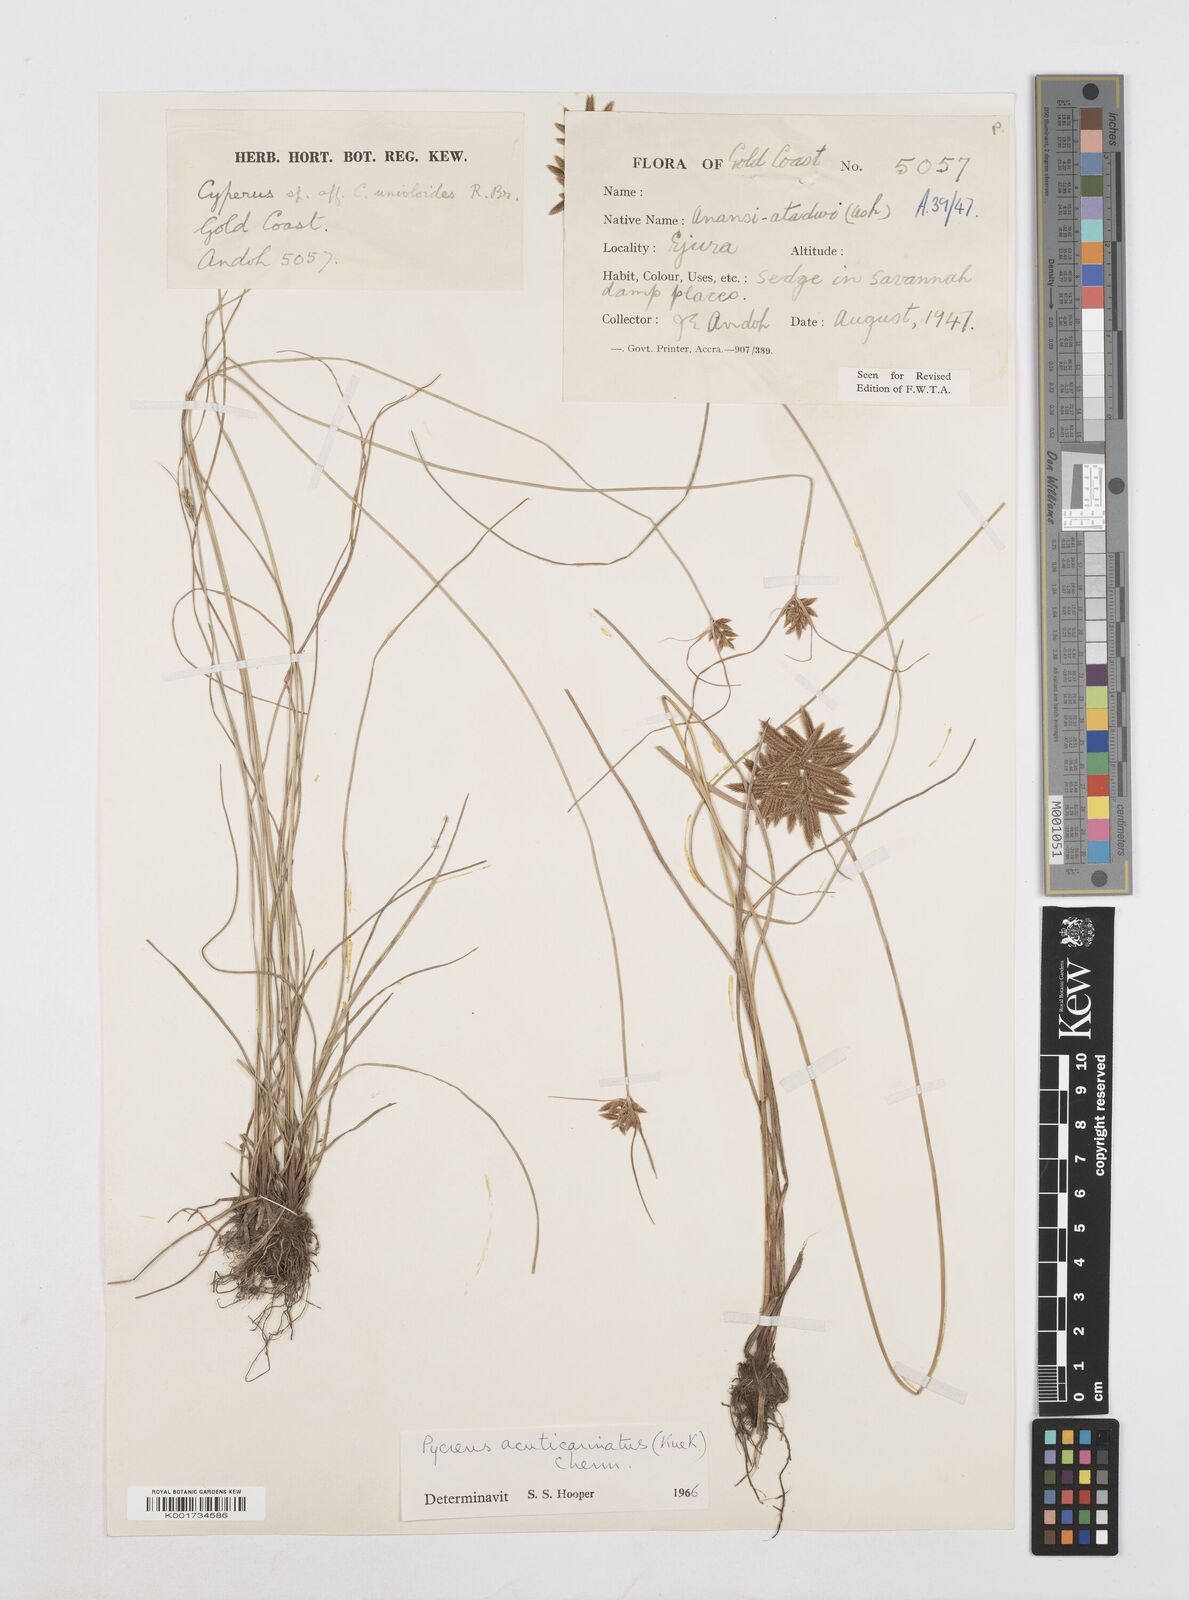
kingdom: Plantae
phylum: Tracheophyta
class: Liliopsida
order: Poales
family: Cyperaceae
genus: Cyperus
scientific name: Cyperus acuticarinatus
